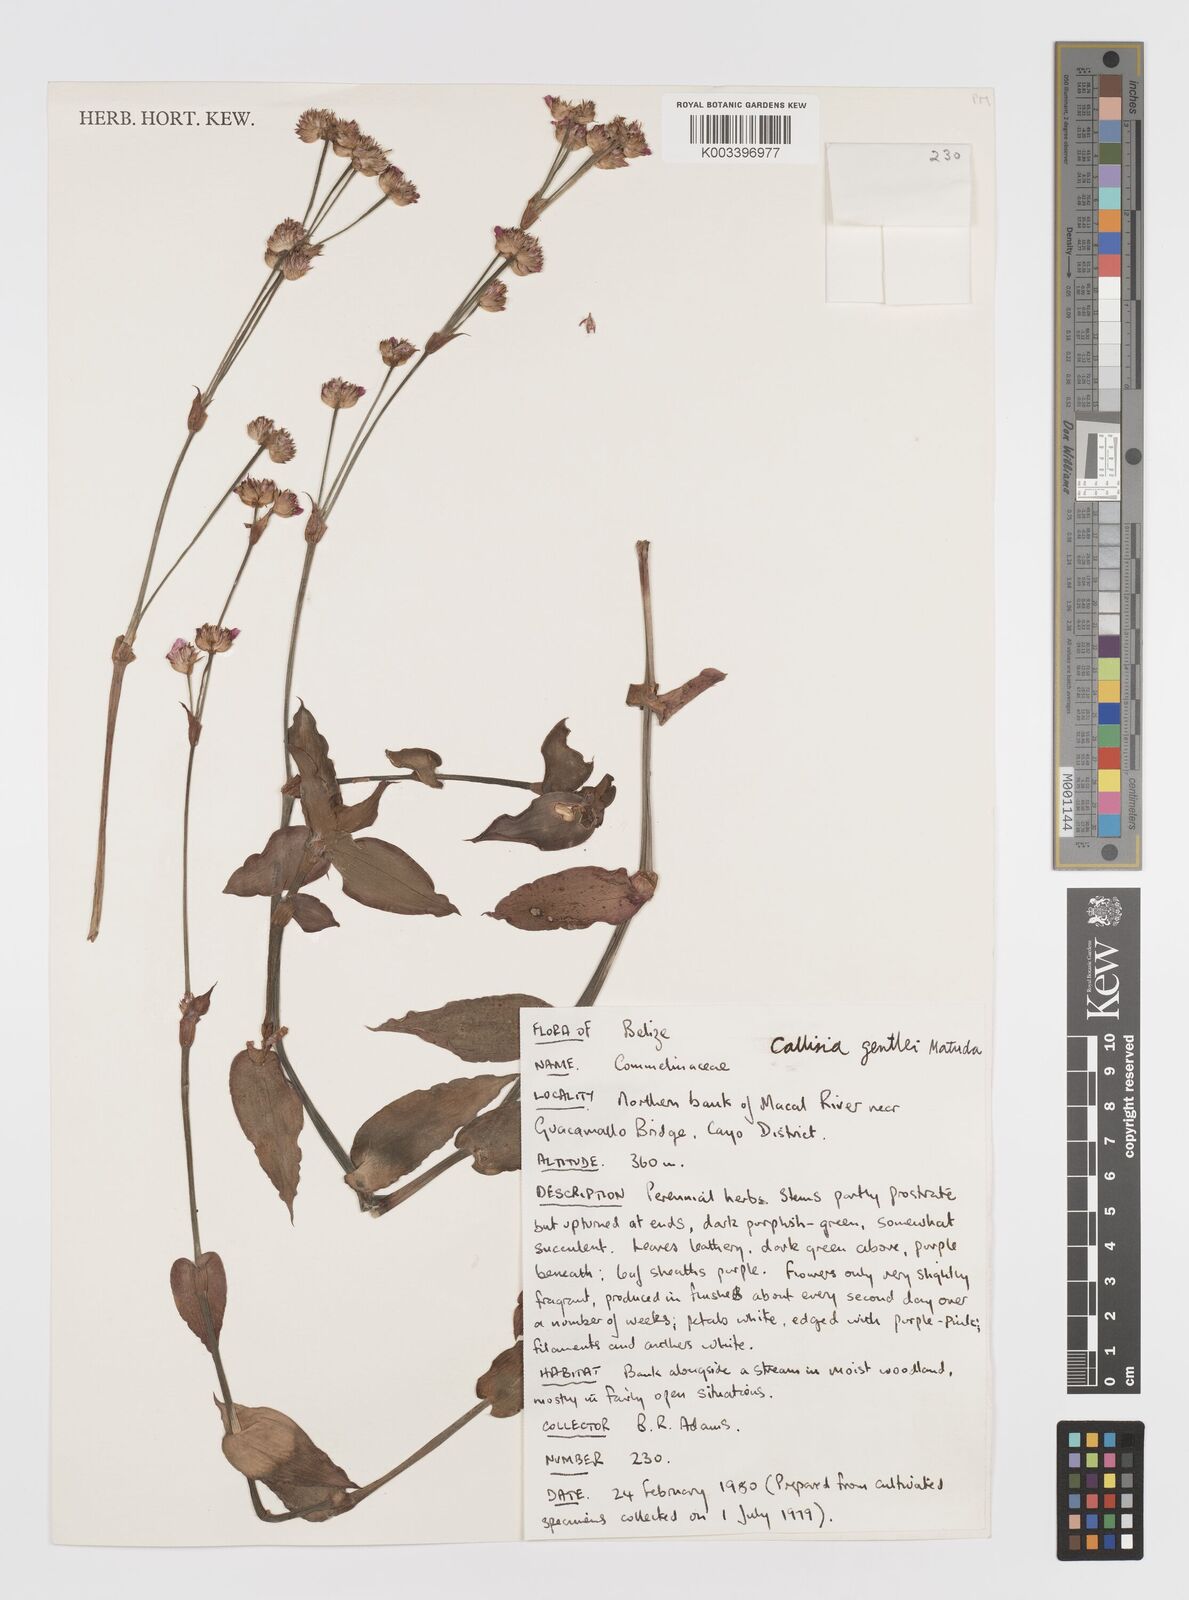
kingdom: Plantae
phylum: Tracheophyta
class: Liliopsida
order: Commelinales
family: Commelinaceae
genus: Callisia
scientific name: Callisia gentlei
